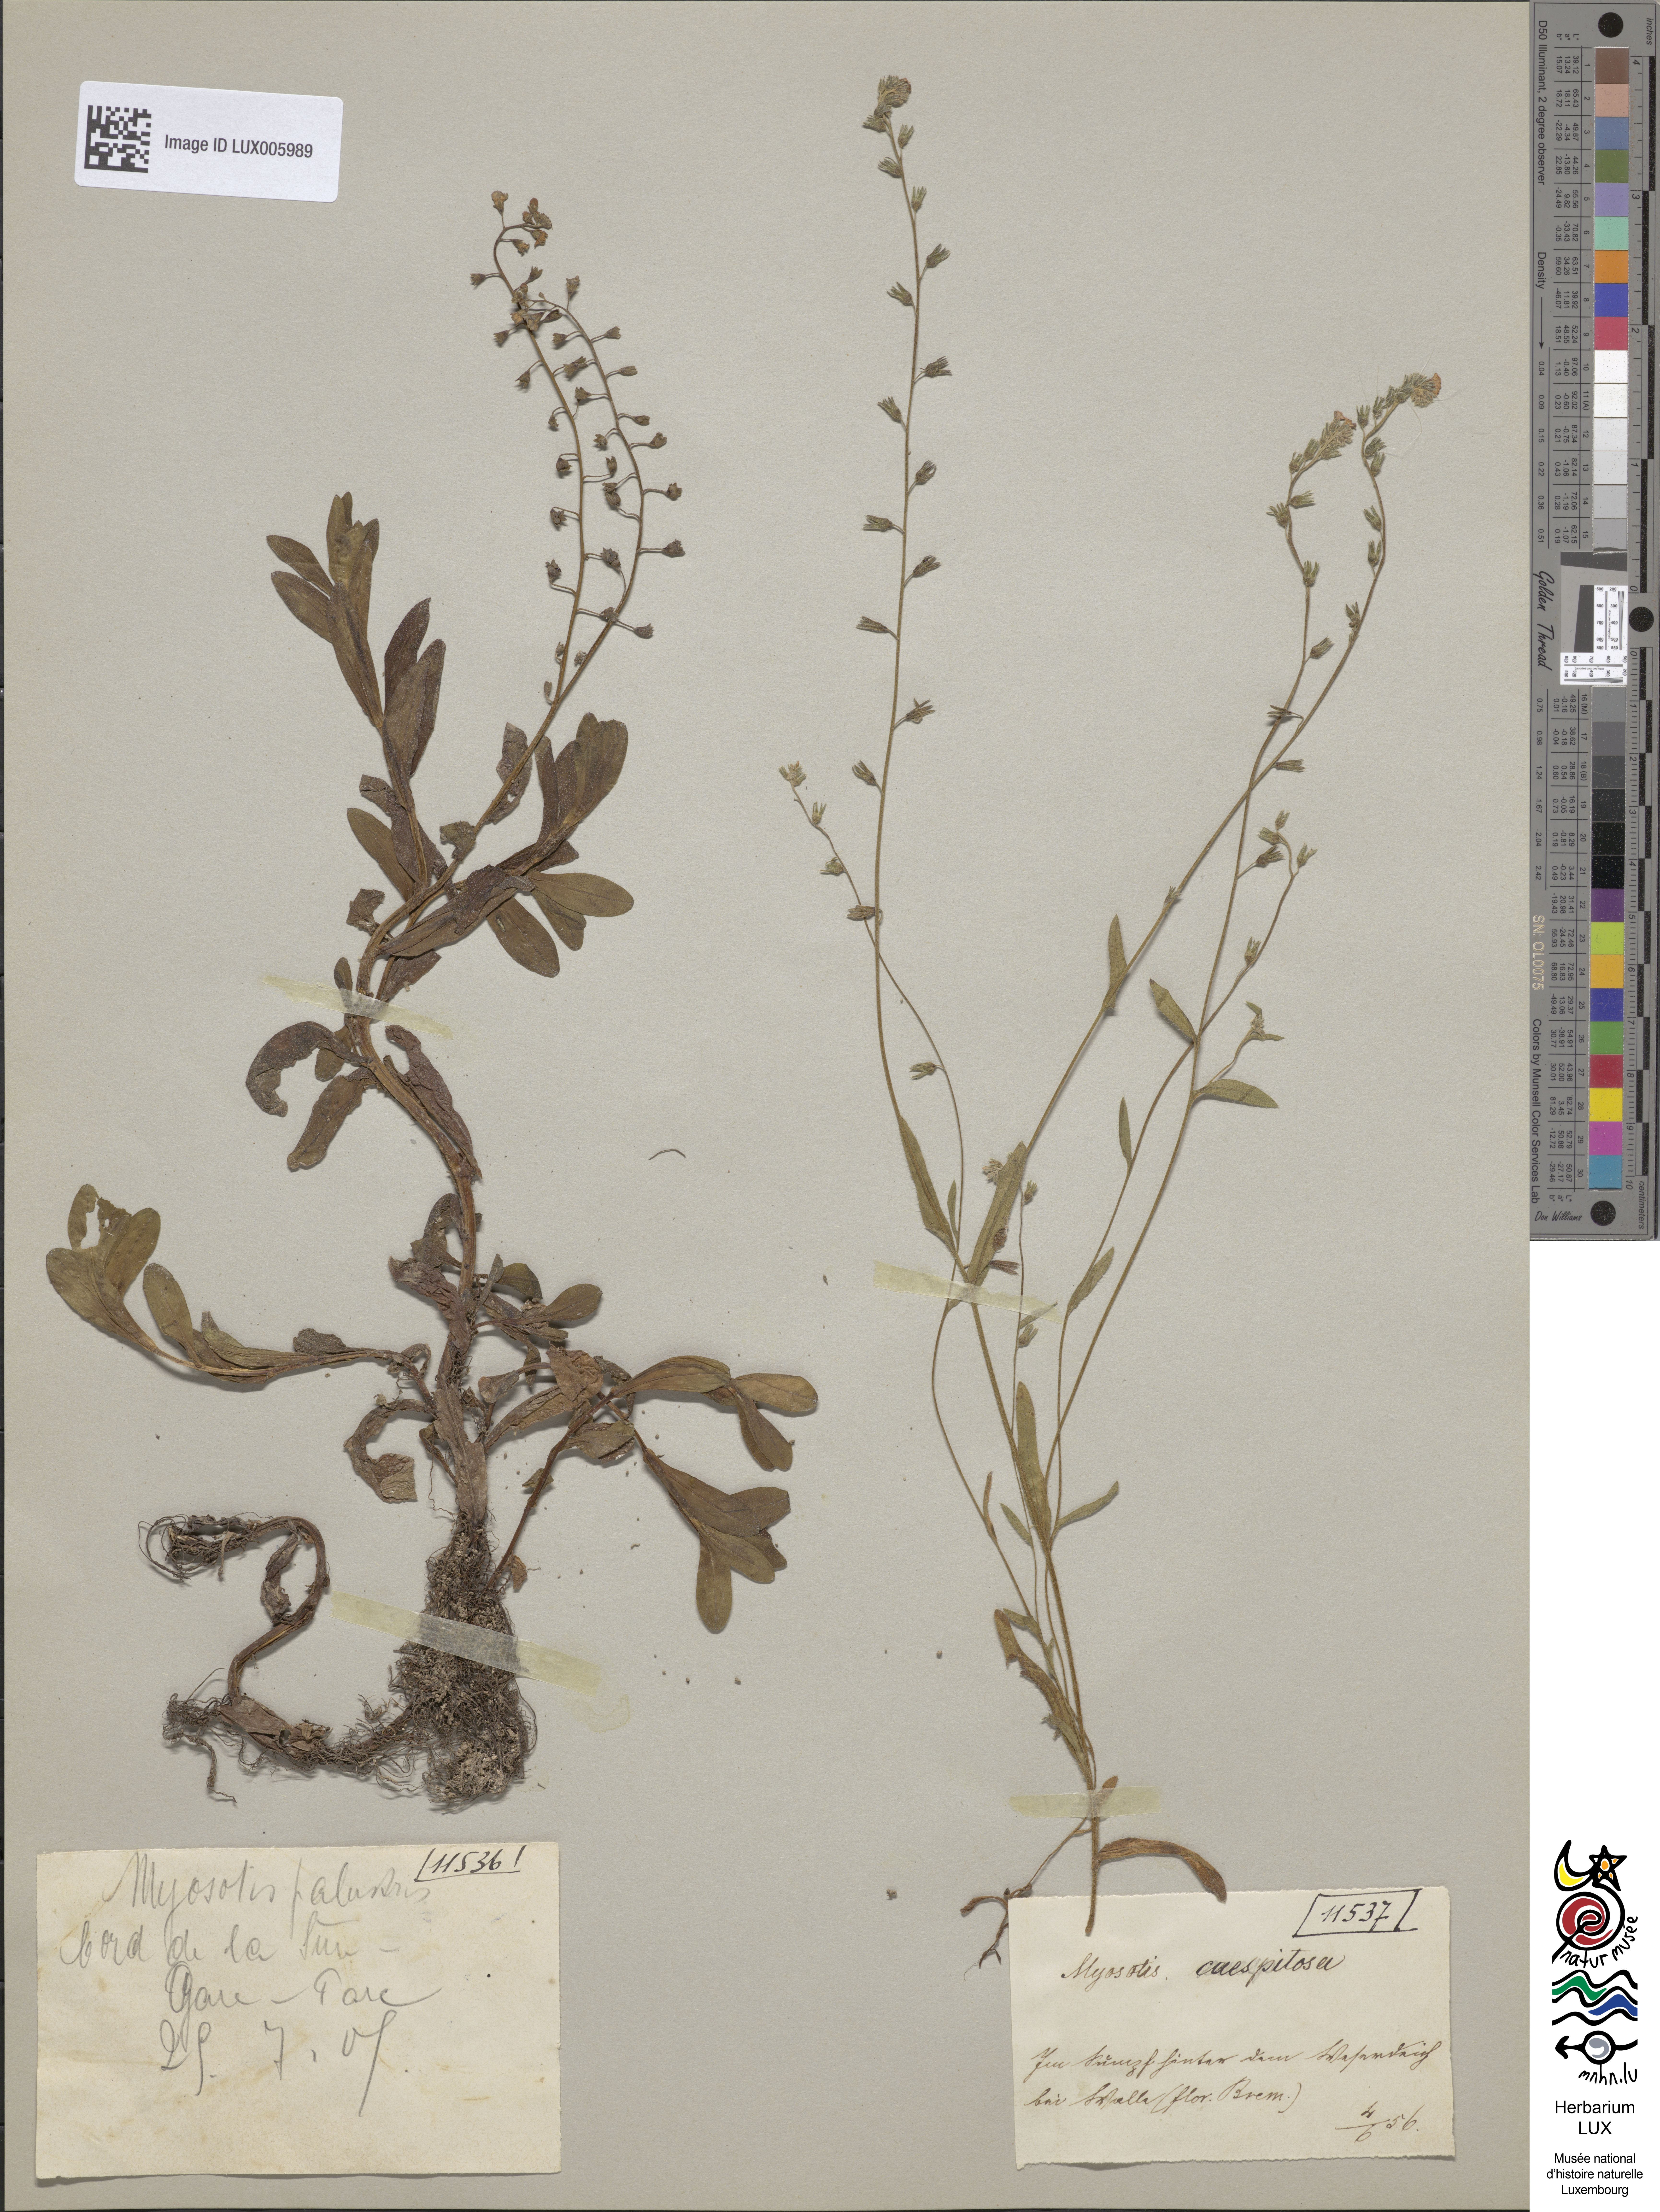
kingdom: Plantae
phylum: Tracheophyta
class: Magnoliopsida
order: Boraginales
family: Boraginaceae
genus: Myosotis
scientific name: Myosotis scorpioides
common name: Water forget-me-not
